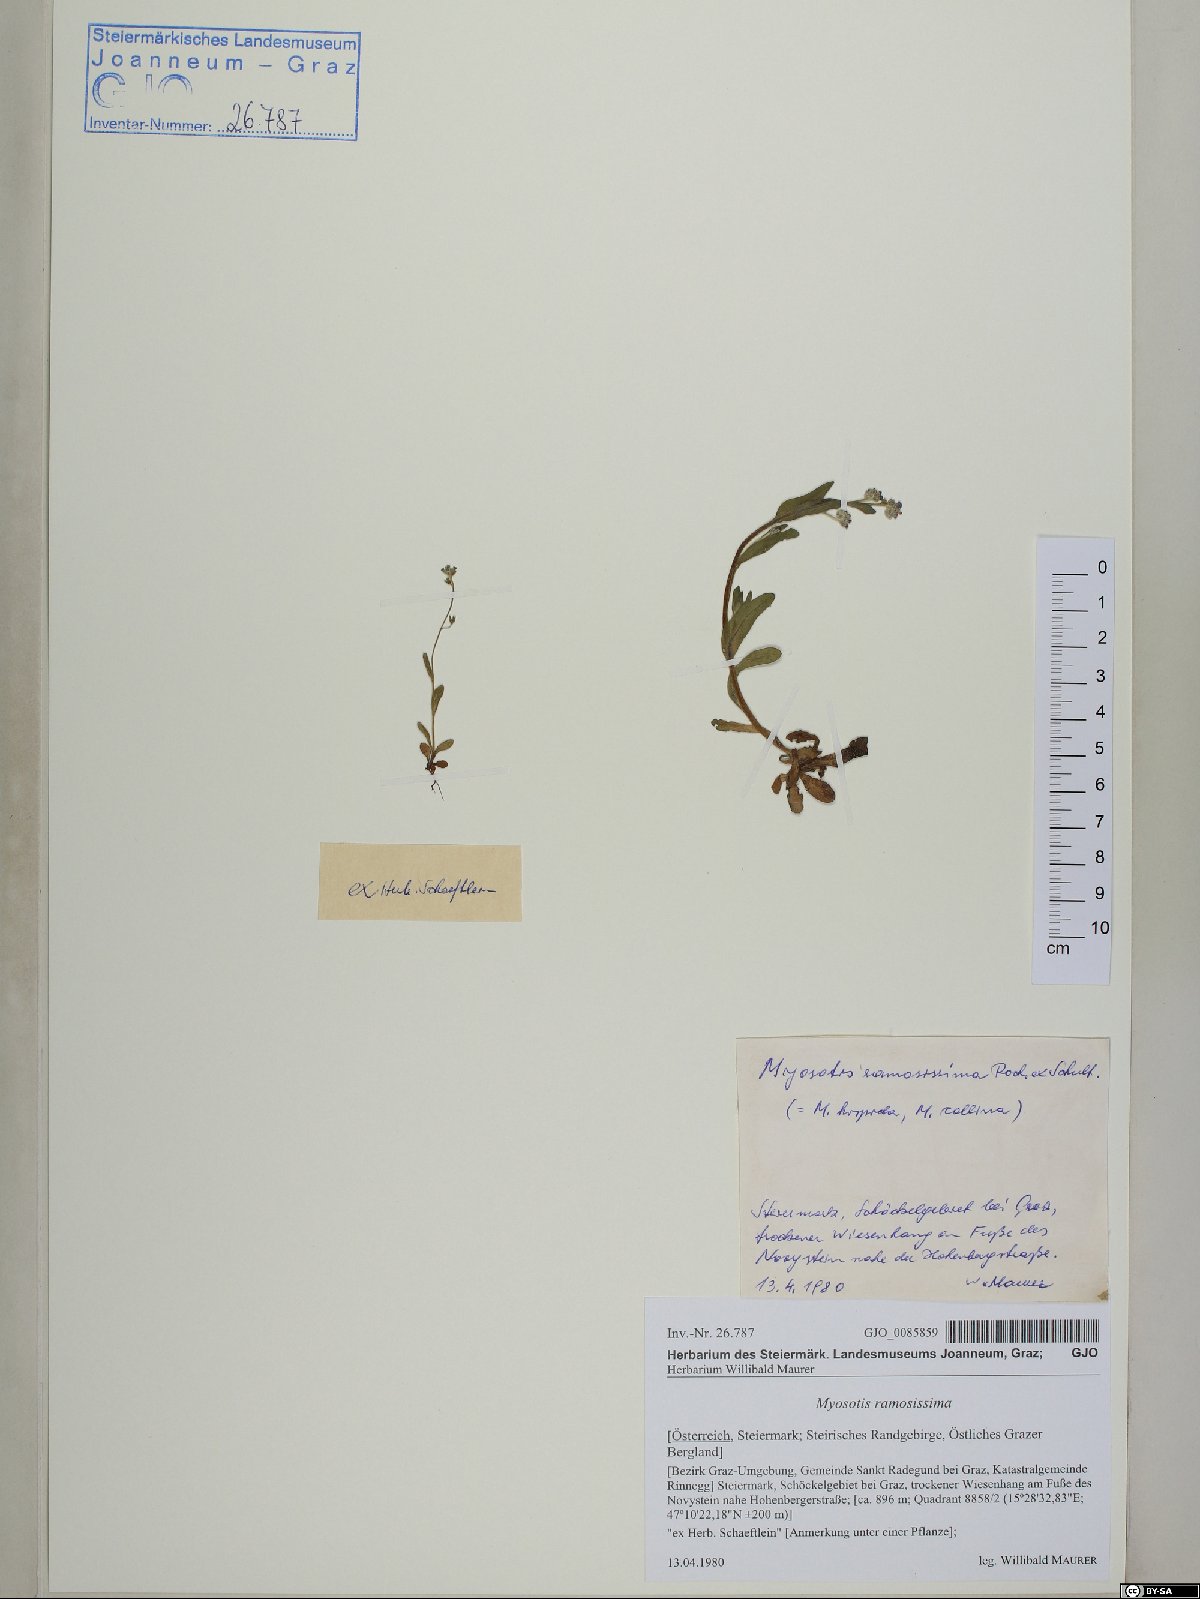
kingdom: Plantae
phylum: Tracheophyta
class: Magnoliopsida
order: Boraginales
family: Boraginaceae
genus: Myosotis
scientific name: Myosotis ramosissima
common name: Early forget-me-not
